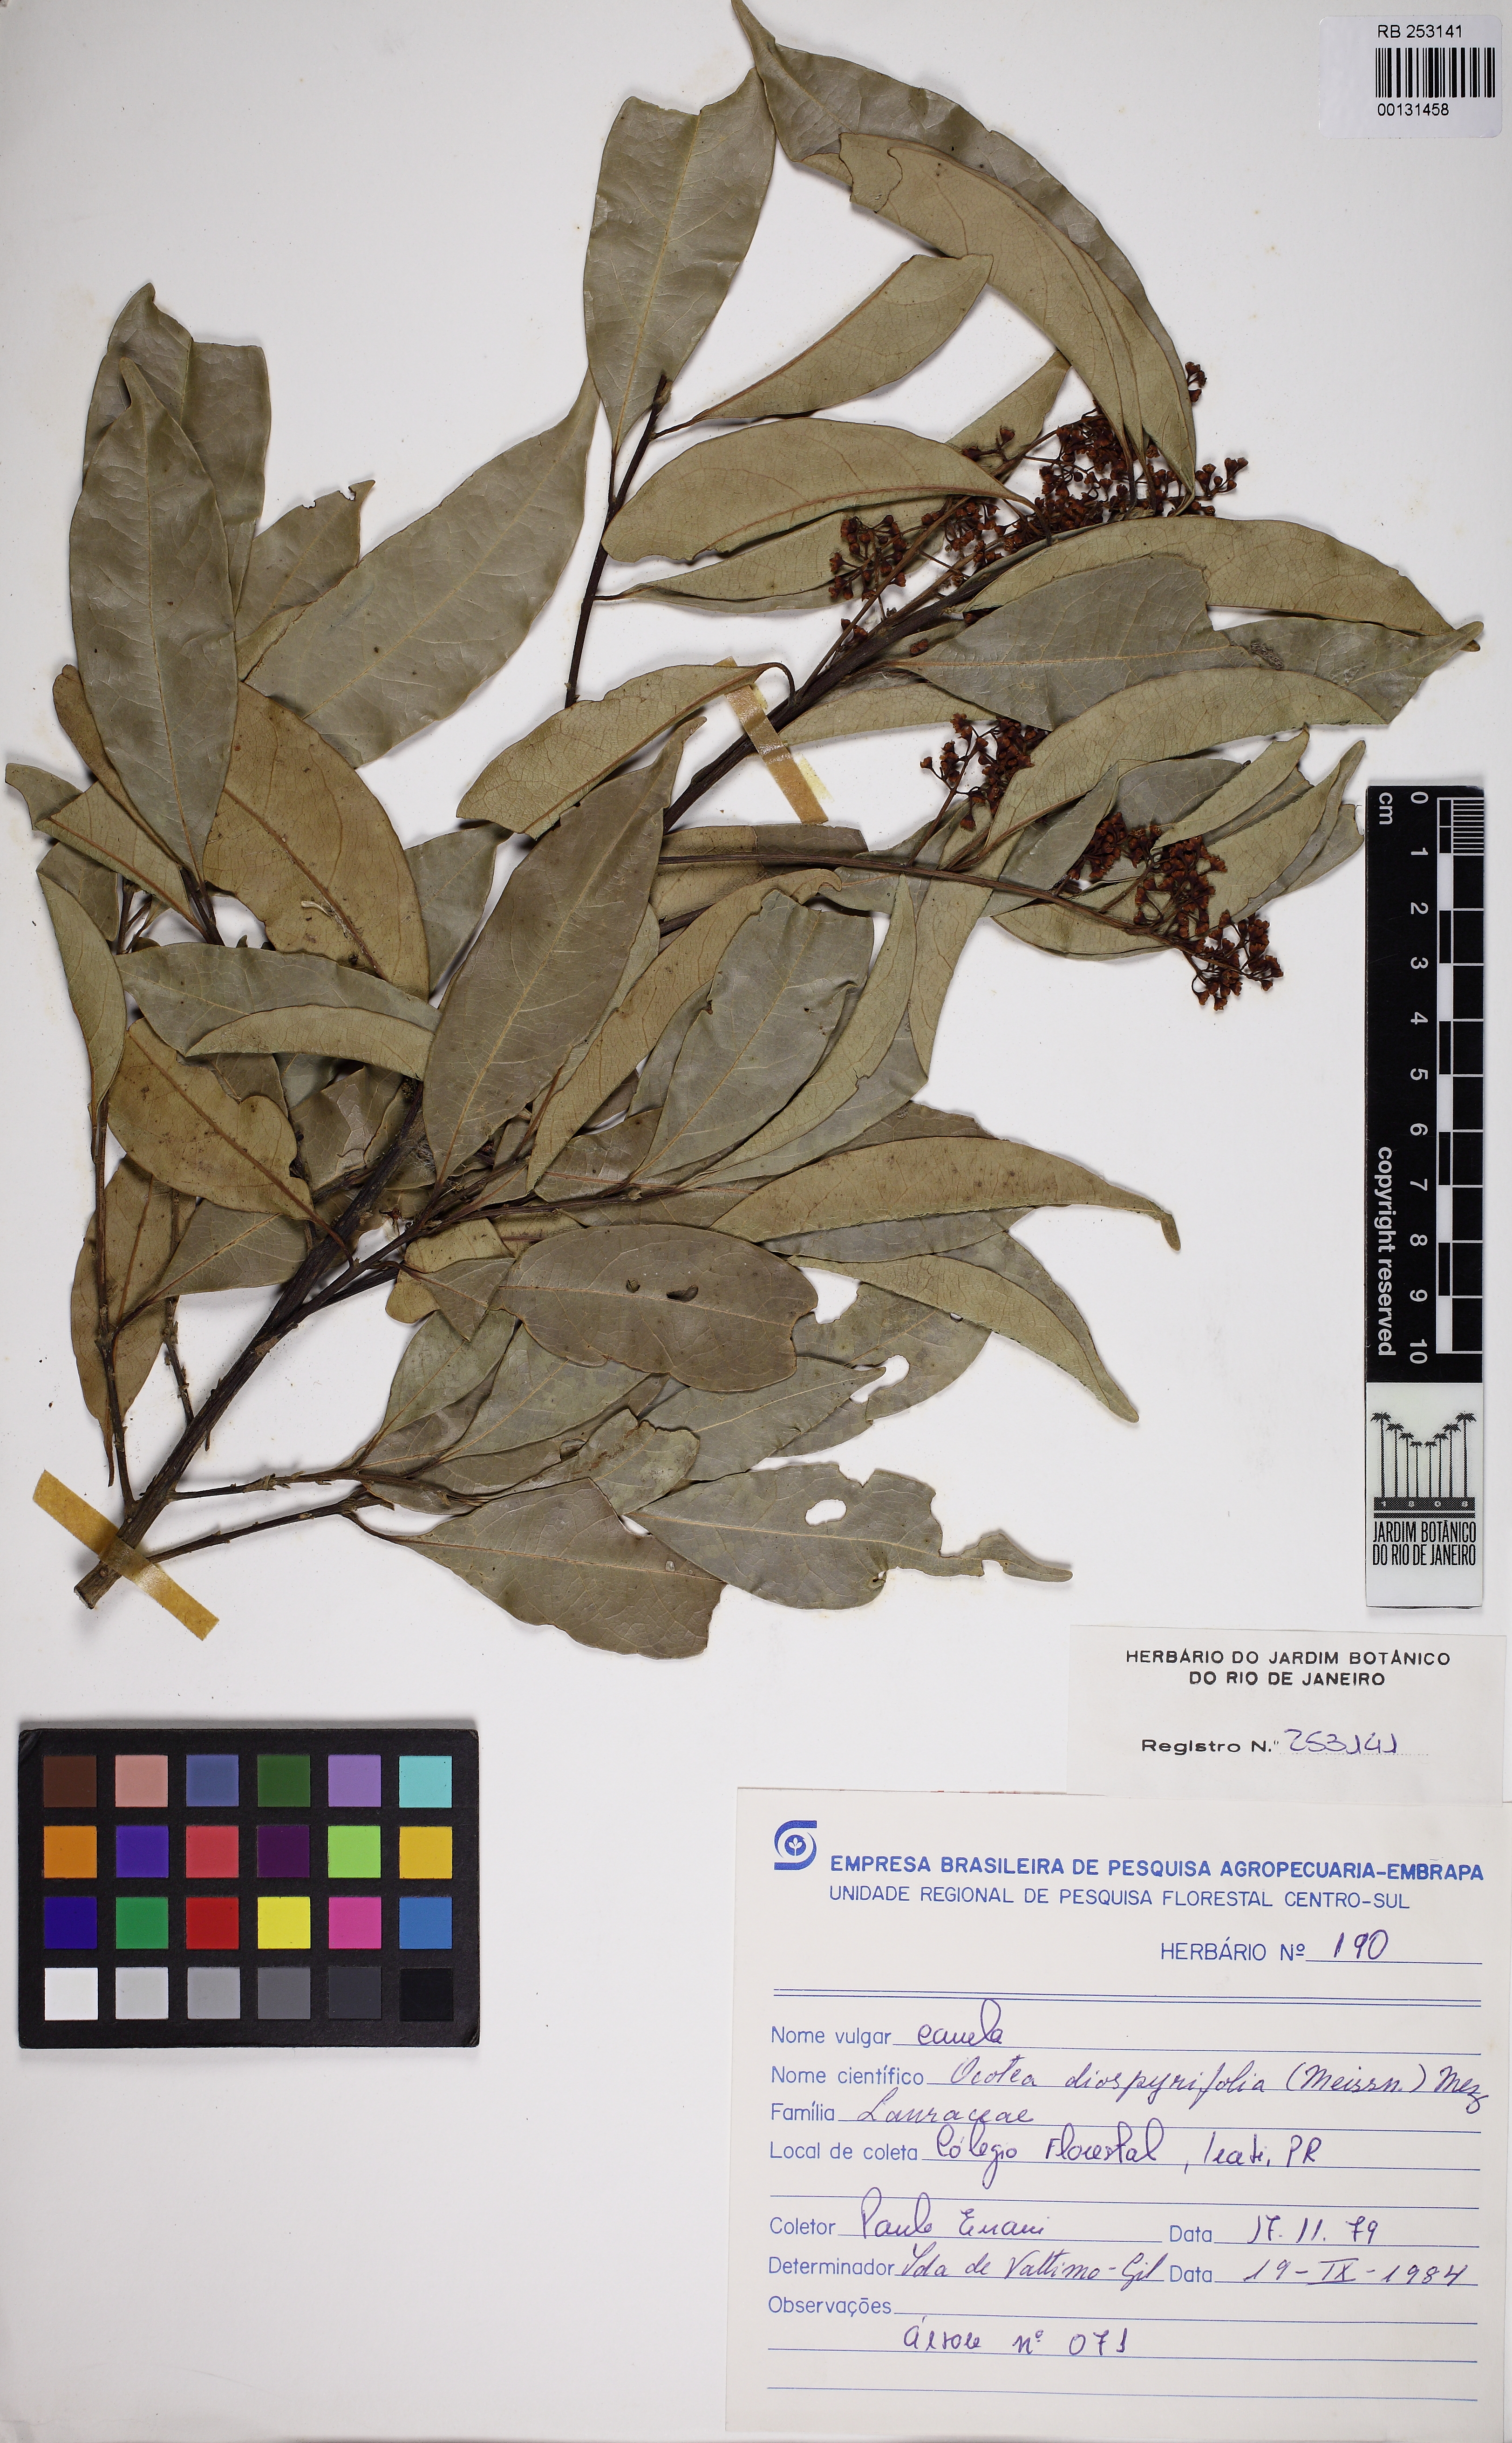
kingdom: Plantae
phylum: Tracheophyta
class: Magnoliopsida
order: Laurales
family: Lauraceae
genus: Ocotea
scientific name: Ocotea diospyrifolia
